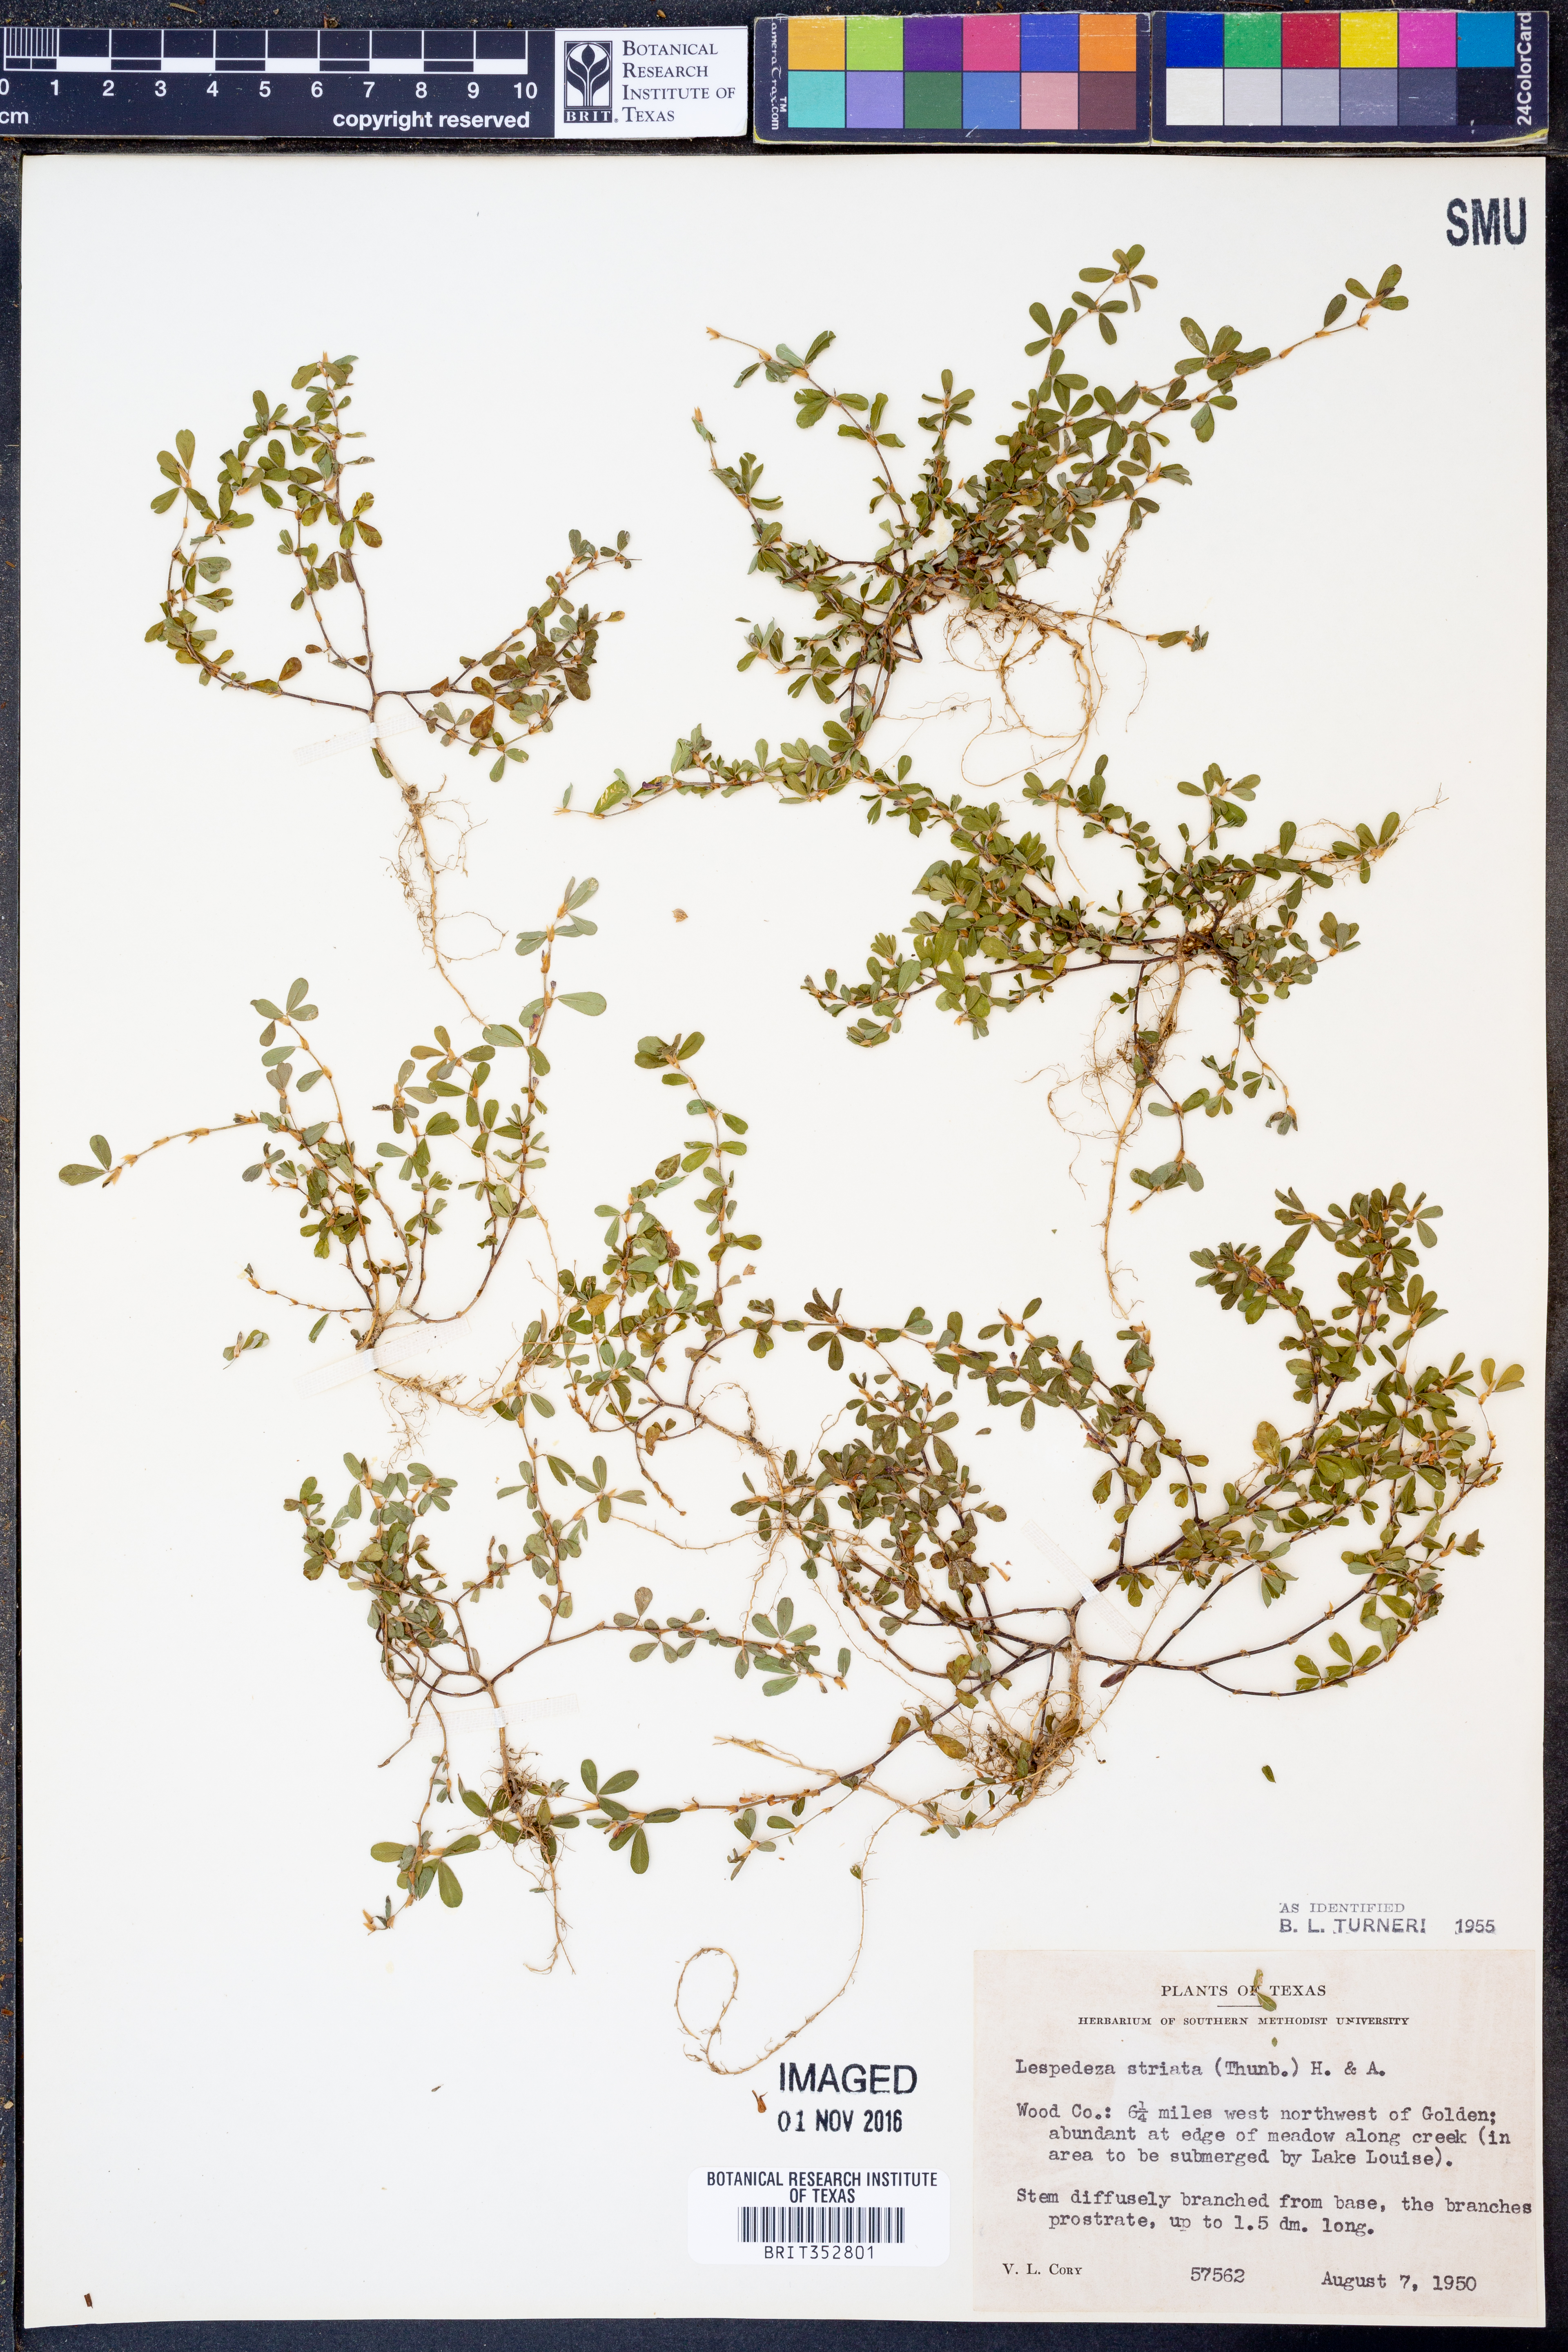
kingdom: Plantae
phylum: Tracheophyta
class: Magnoliopsida
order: Fabales
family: Fabaceae
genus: Kummerowia
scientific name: Kummerowia striata
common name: Japanese clover
